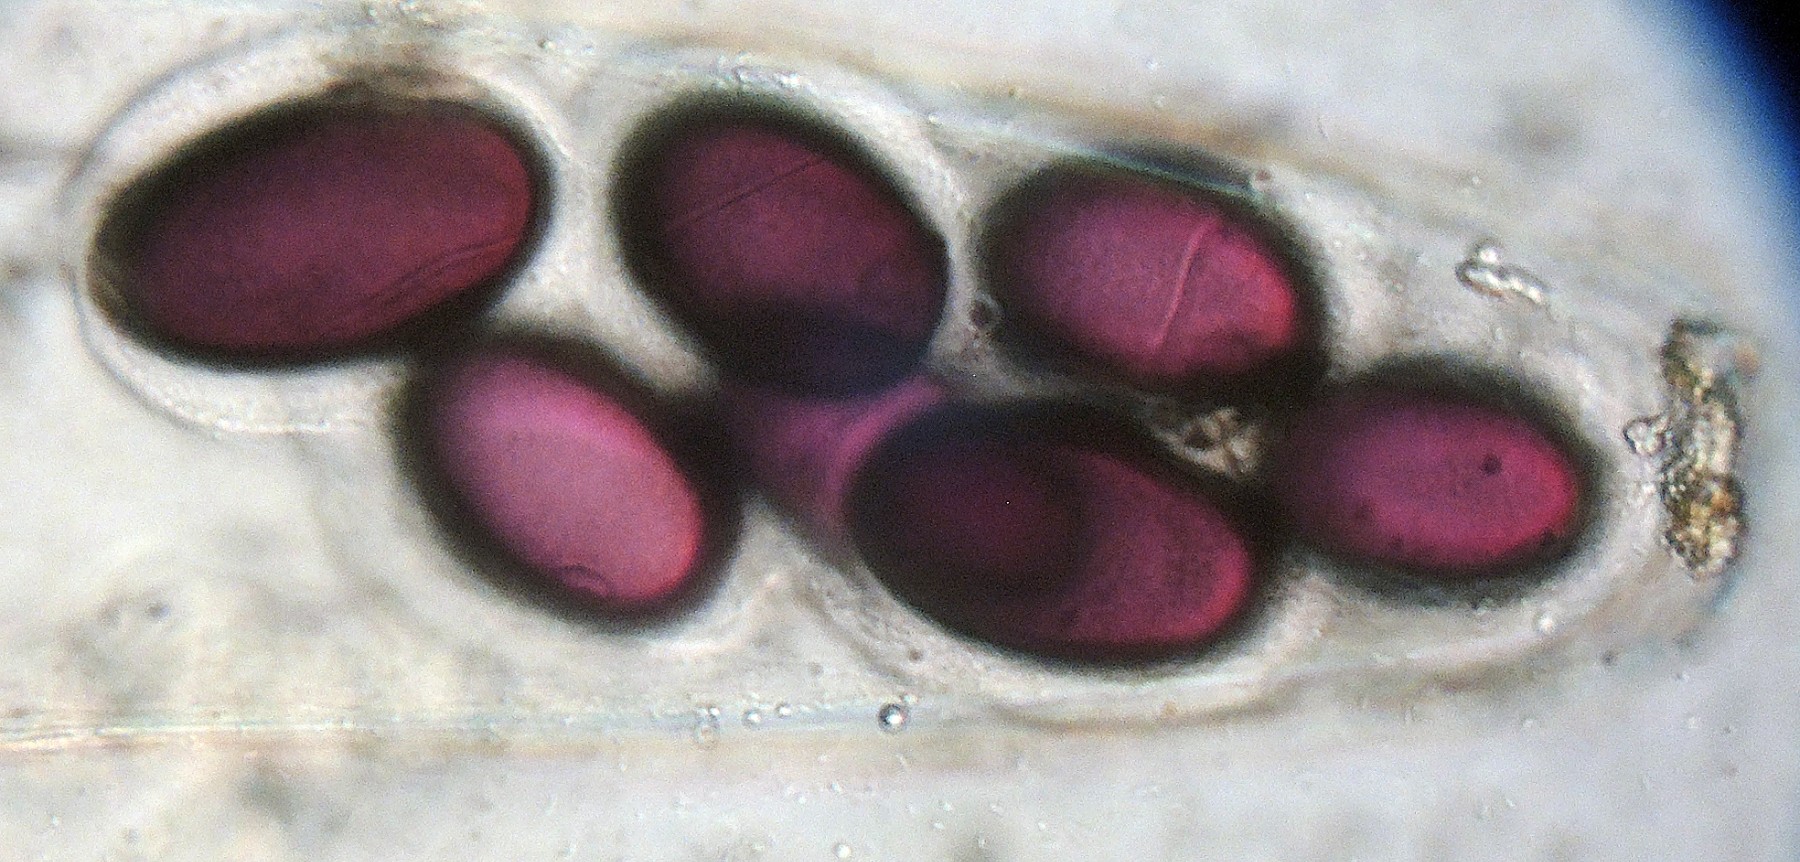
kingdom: Fungi
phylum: Ascomycota
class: Pezizomycetes
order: Pezizales
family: Ascobolaceae
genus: Ascobolus
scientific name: Ascobolus immersus
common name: storsporet prikbæger
